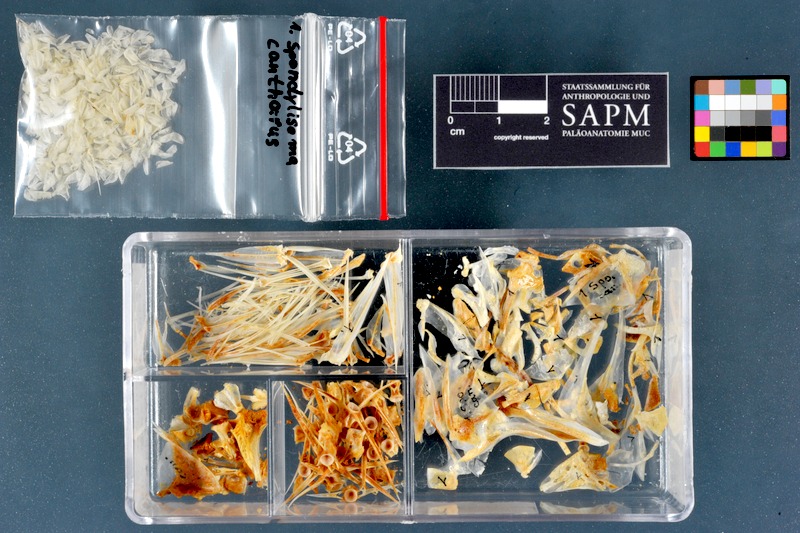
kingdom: Animalia
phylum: Chordata
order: Perciformes
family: Sparidae
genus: Spondyliosoma
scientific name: Spondyliosoma cantharus
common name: Black seabream
